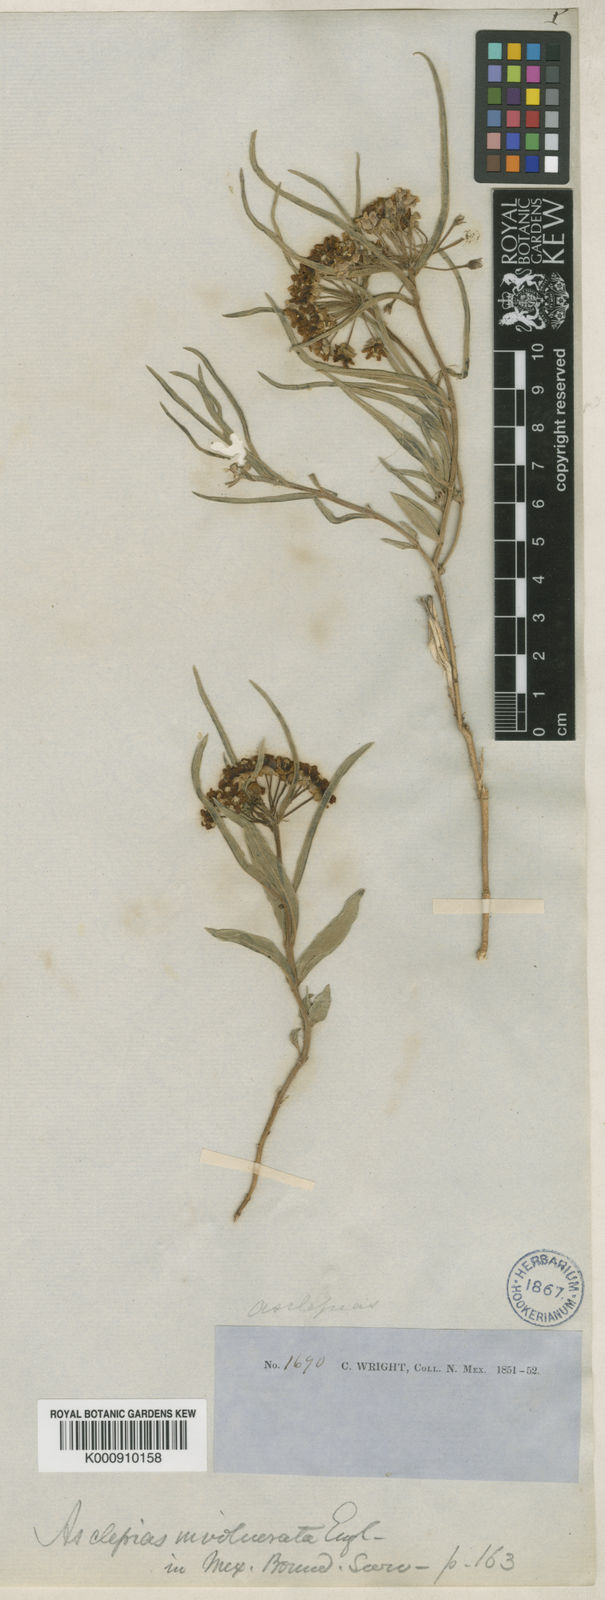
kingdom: Plantae
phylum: Tracheophyta
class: Magnoliopsida
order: Gentianales
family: Apocynaceae
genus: Asclepias
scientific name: Asclepias involucrata
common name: Dwarf milkweed
